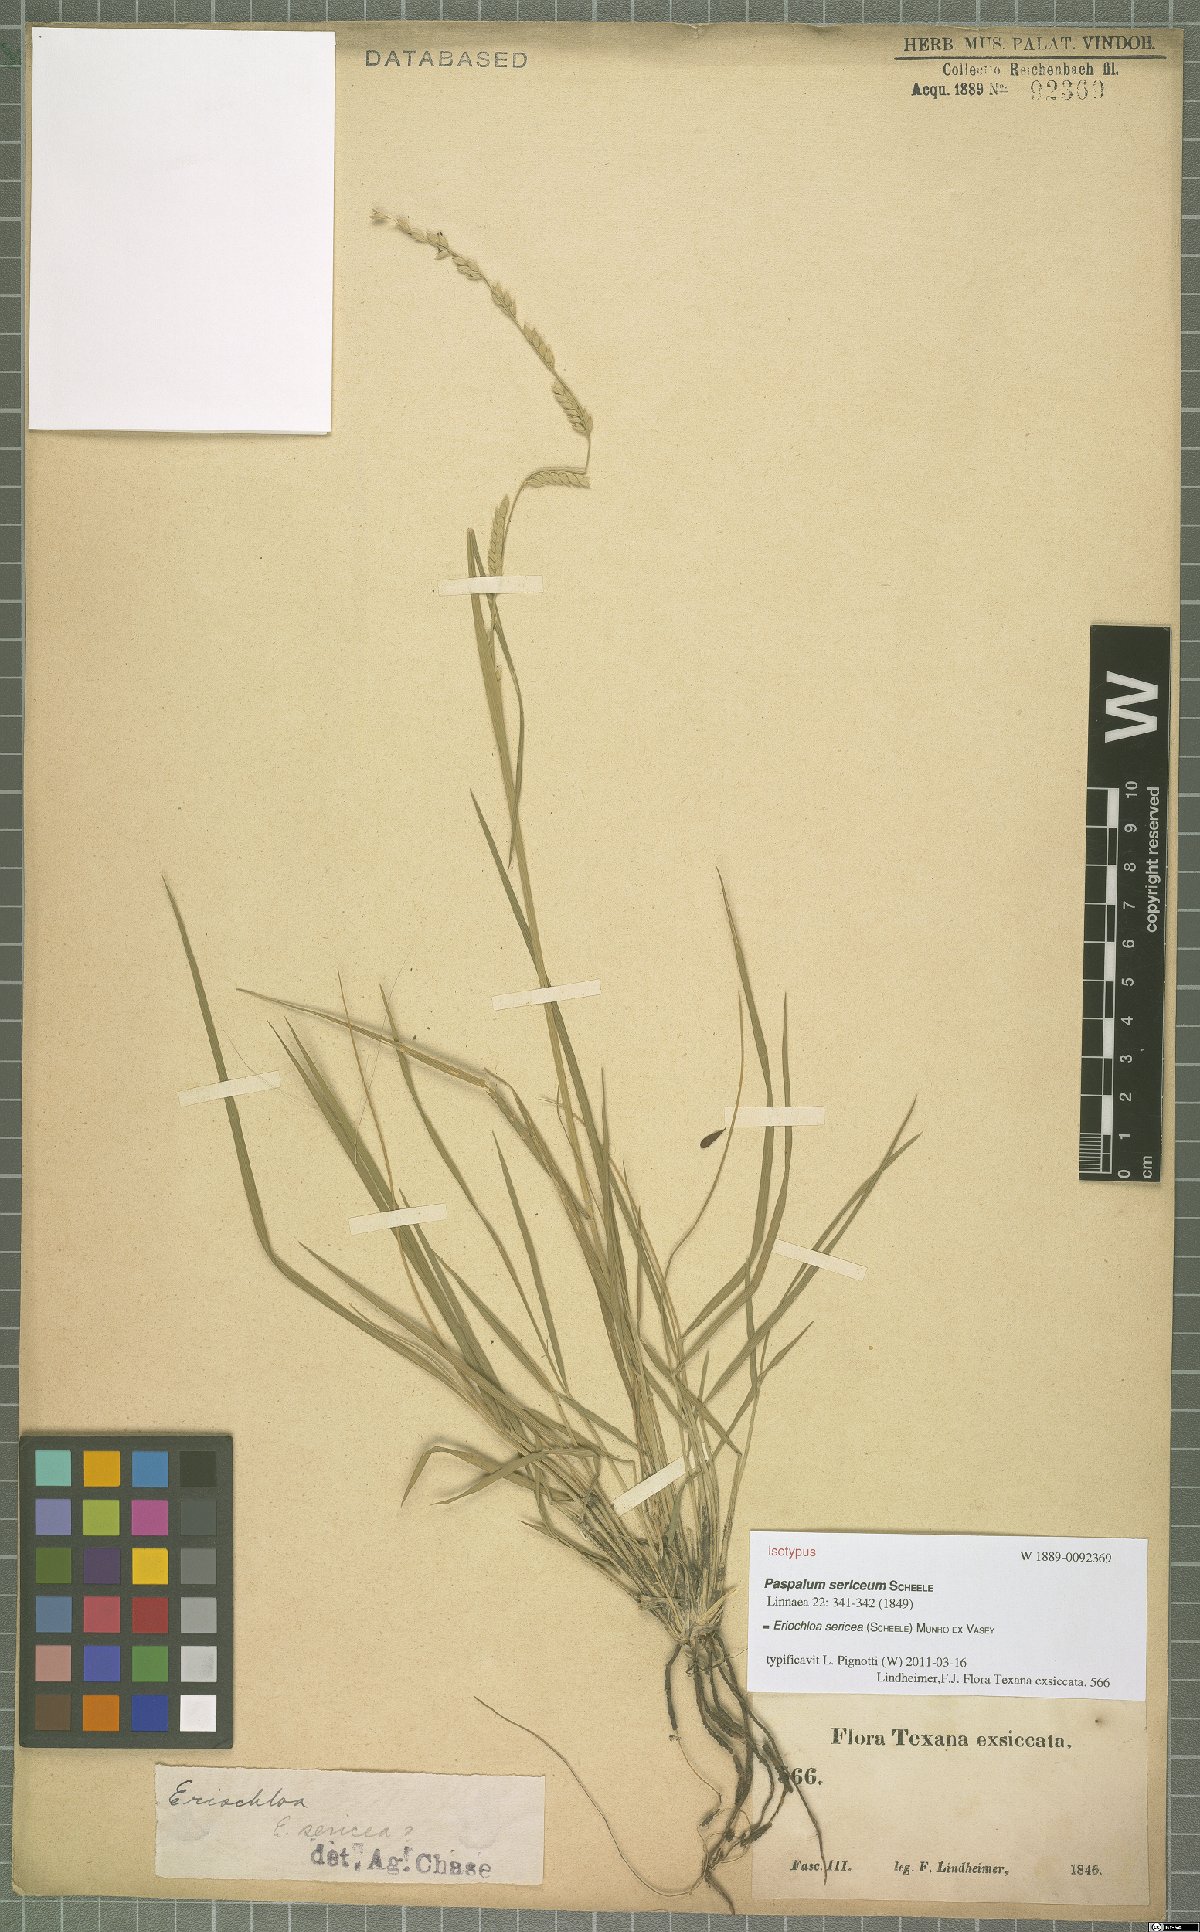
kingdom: Plantae
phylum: Tracheophyta
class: Liliopsida
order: Poales
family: Poaceae
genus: Eriochloa
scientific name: Eriochloa sericea
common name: Texas cup grass
